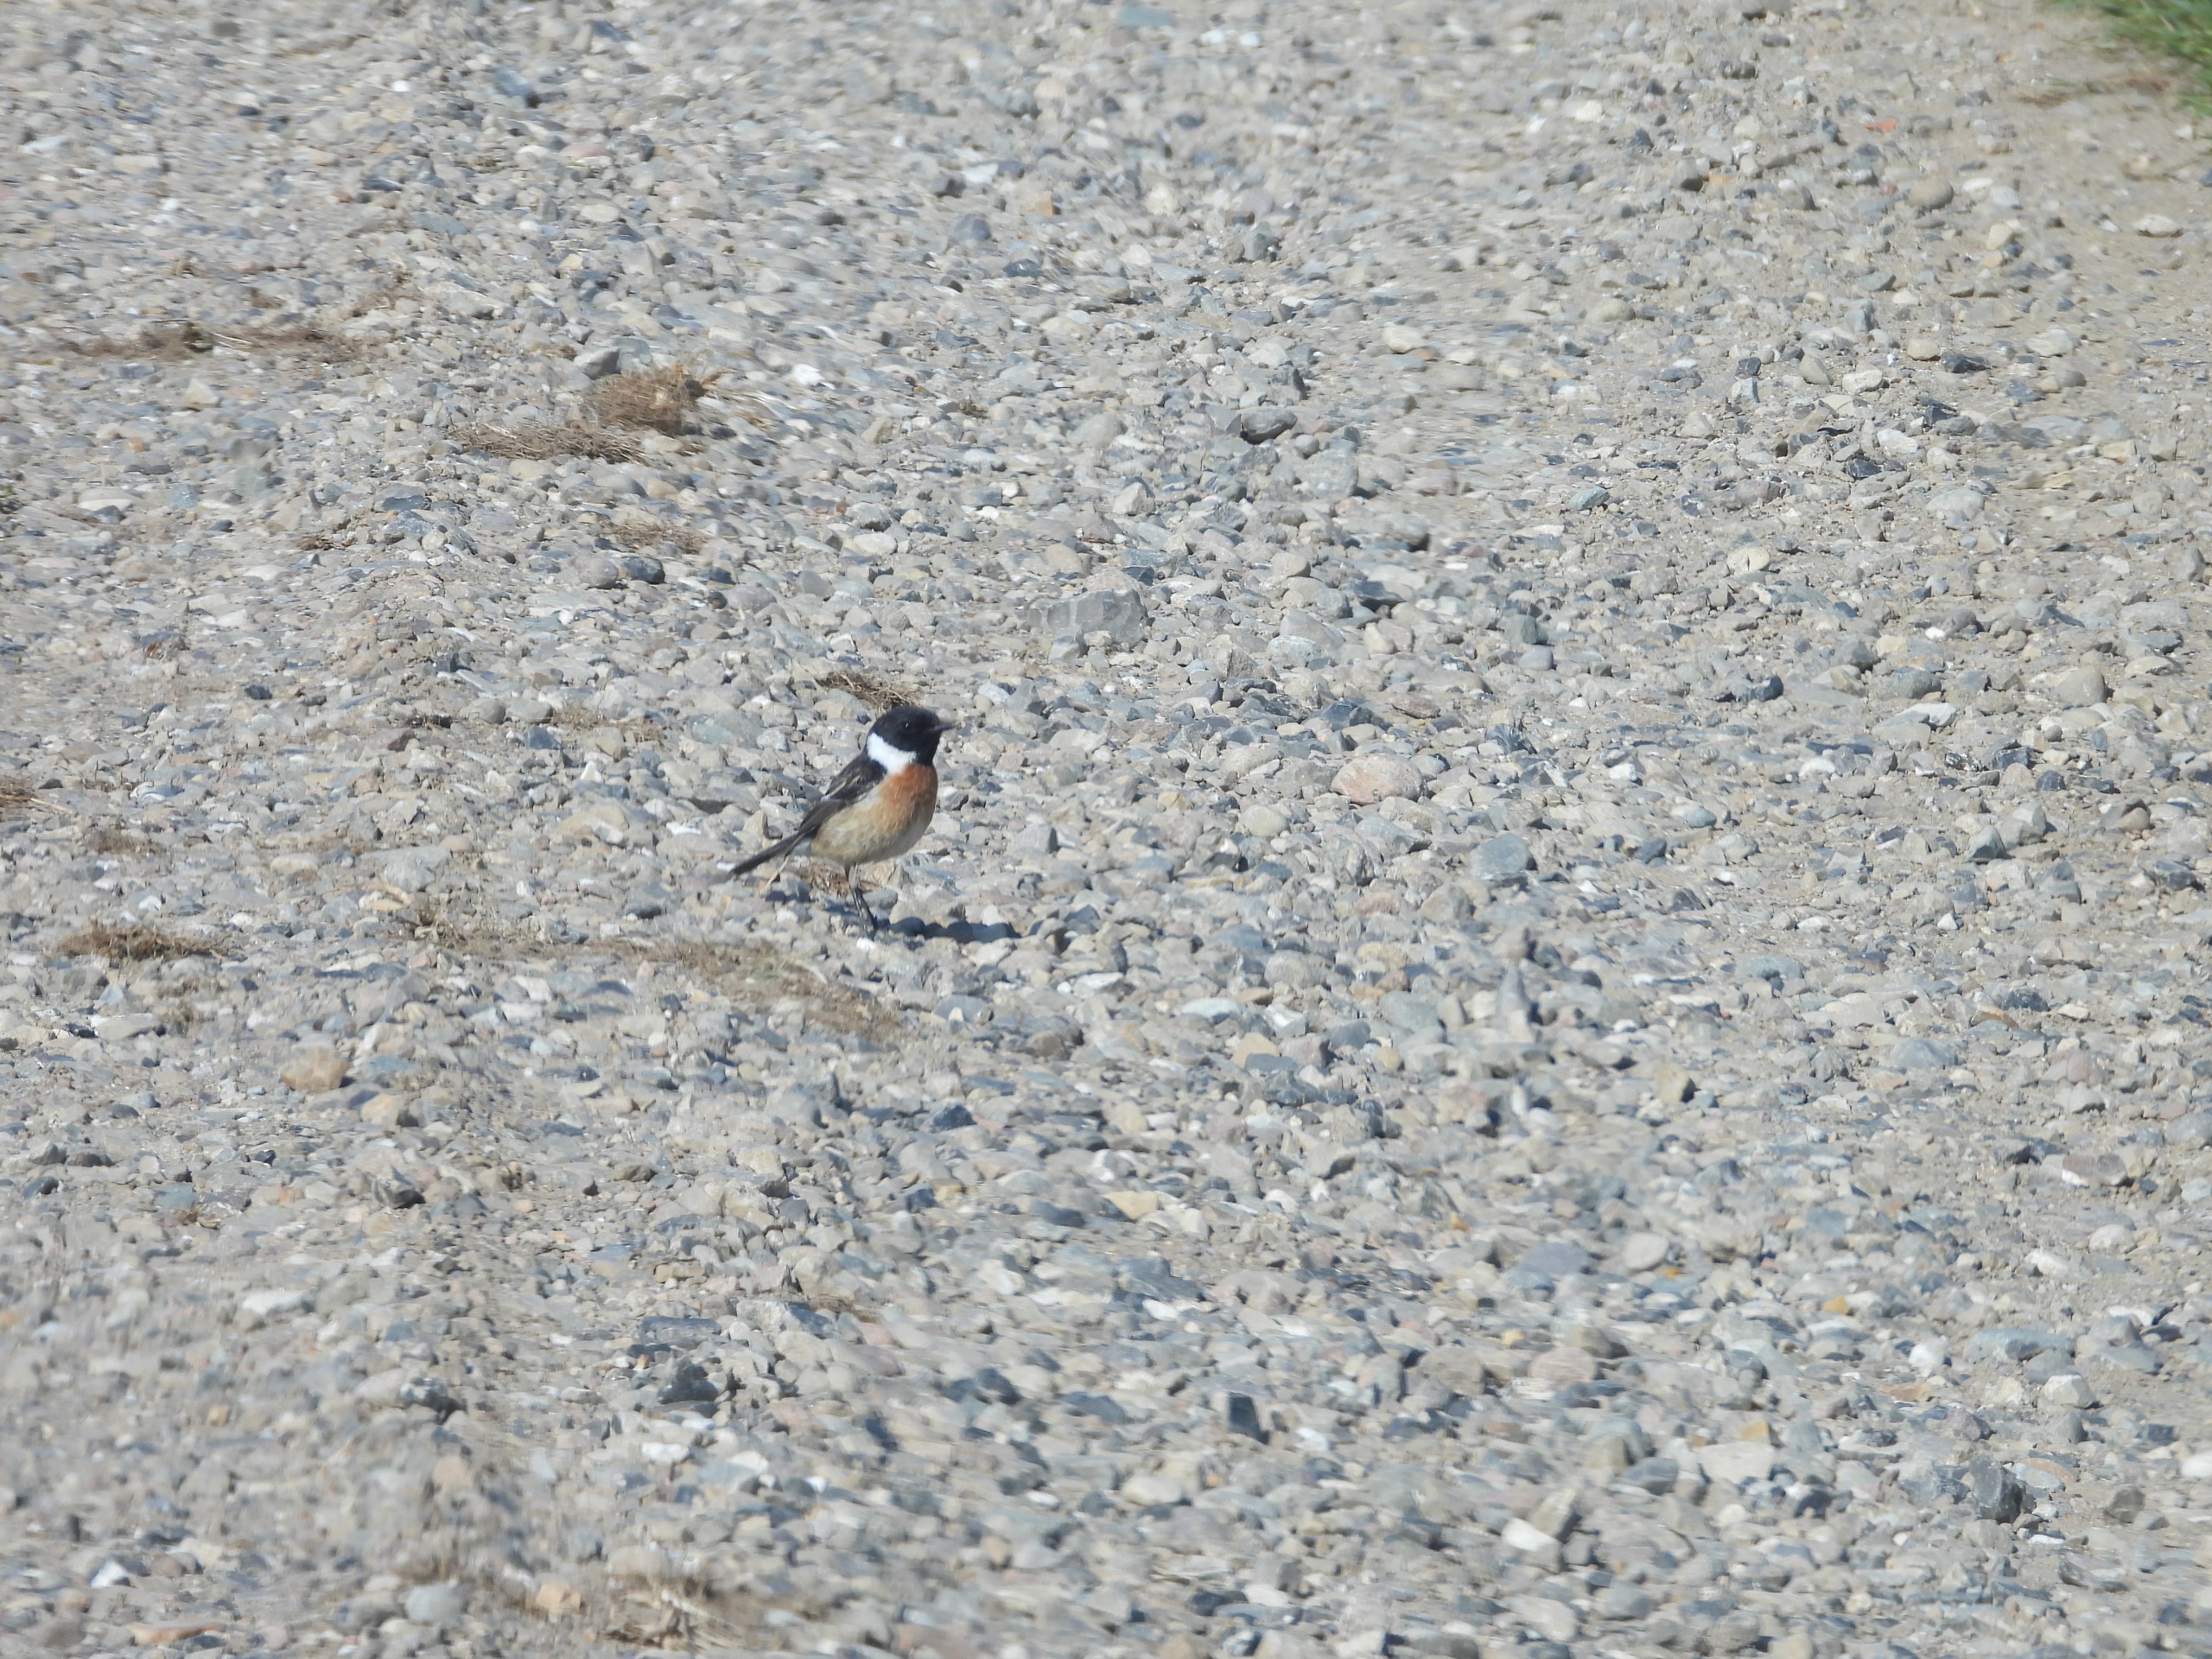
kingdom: Animalia
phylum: Chordata
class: Aves
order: Passeriformes
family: Muscicapidae
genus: Saxicola
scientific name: Saxicola rubicola
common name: Sortstrubet bynkefugl
